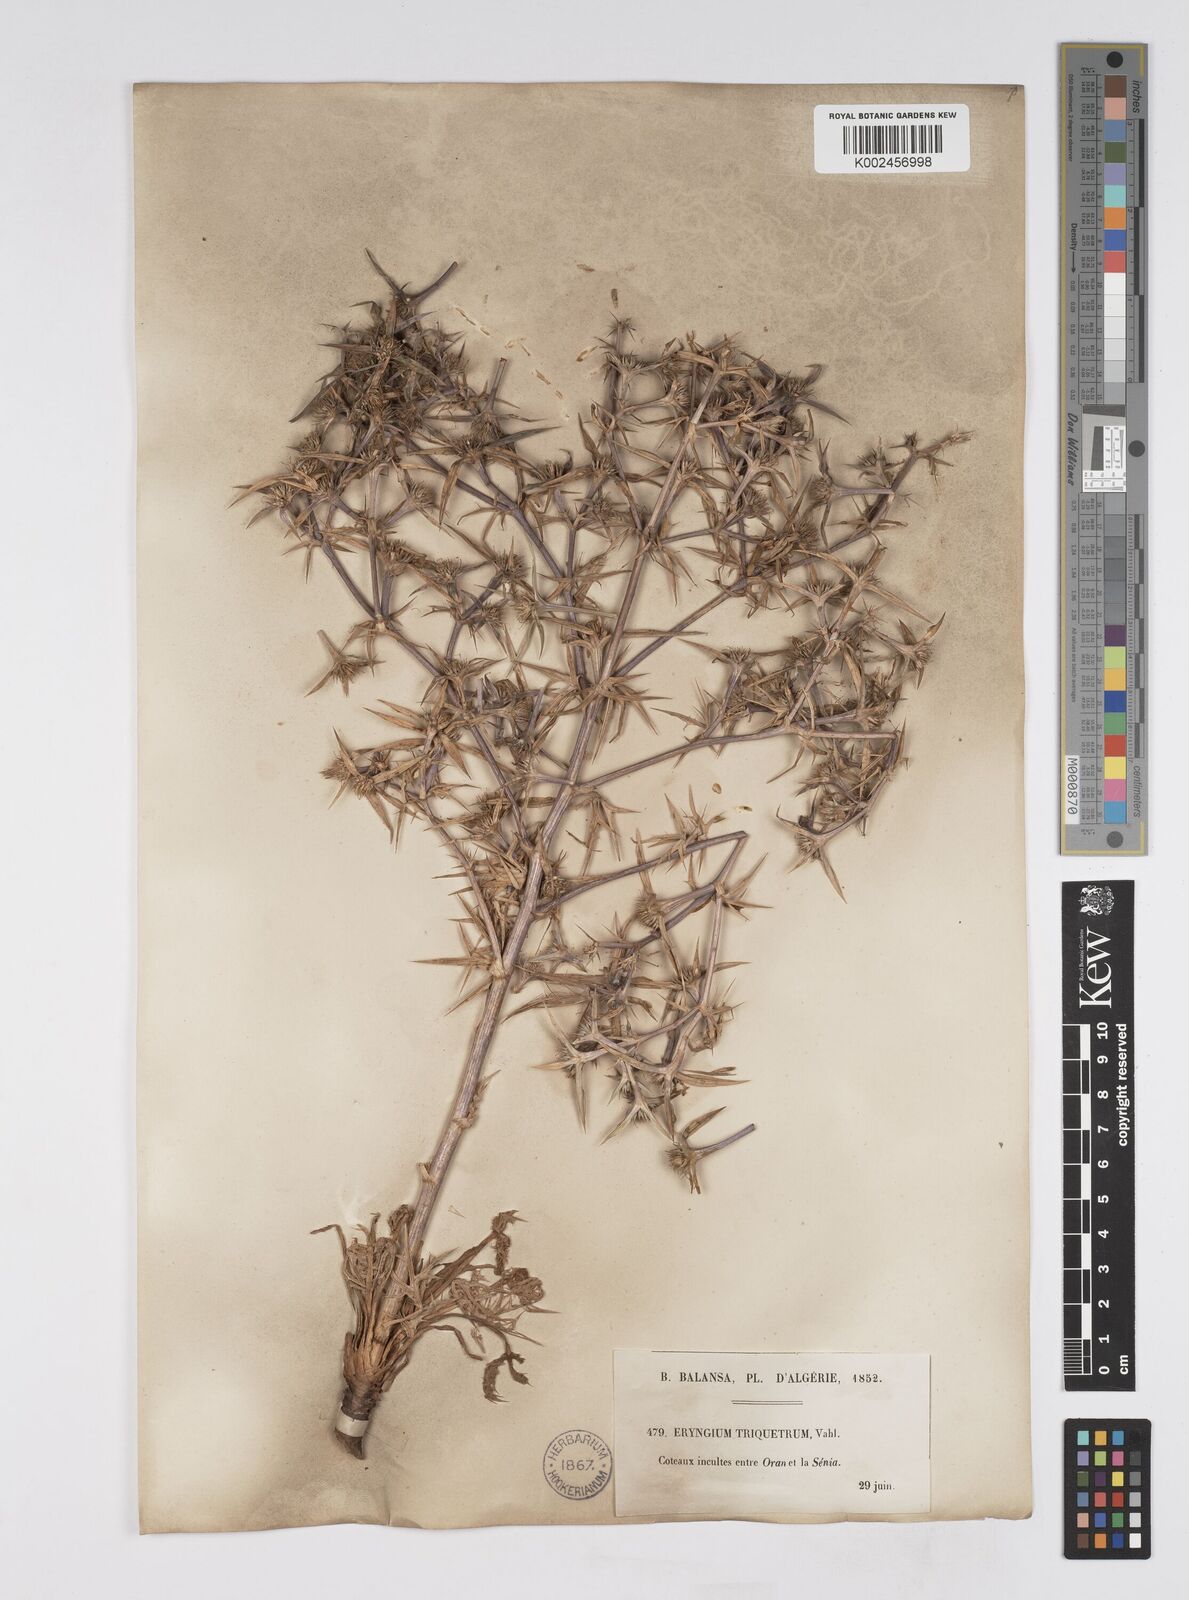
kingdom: Plantae
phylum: Tracheophyta
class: Magnoliopsida
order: Apiales
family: Apiaceae
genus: Eryngium
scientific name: Eryngium triquetrum
